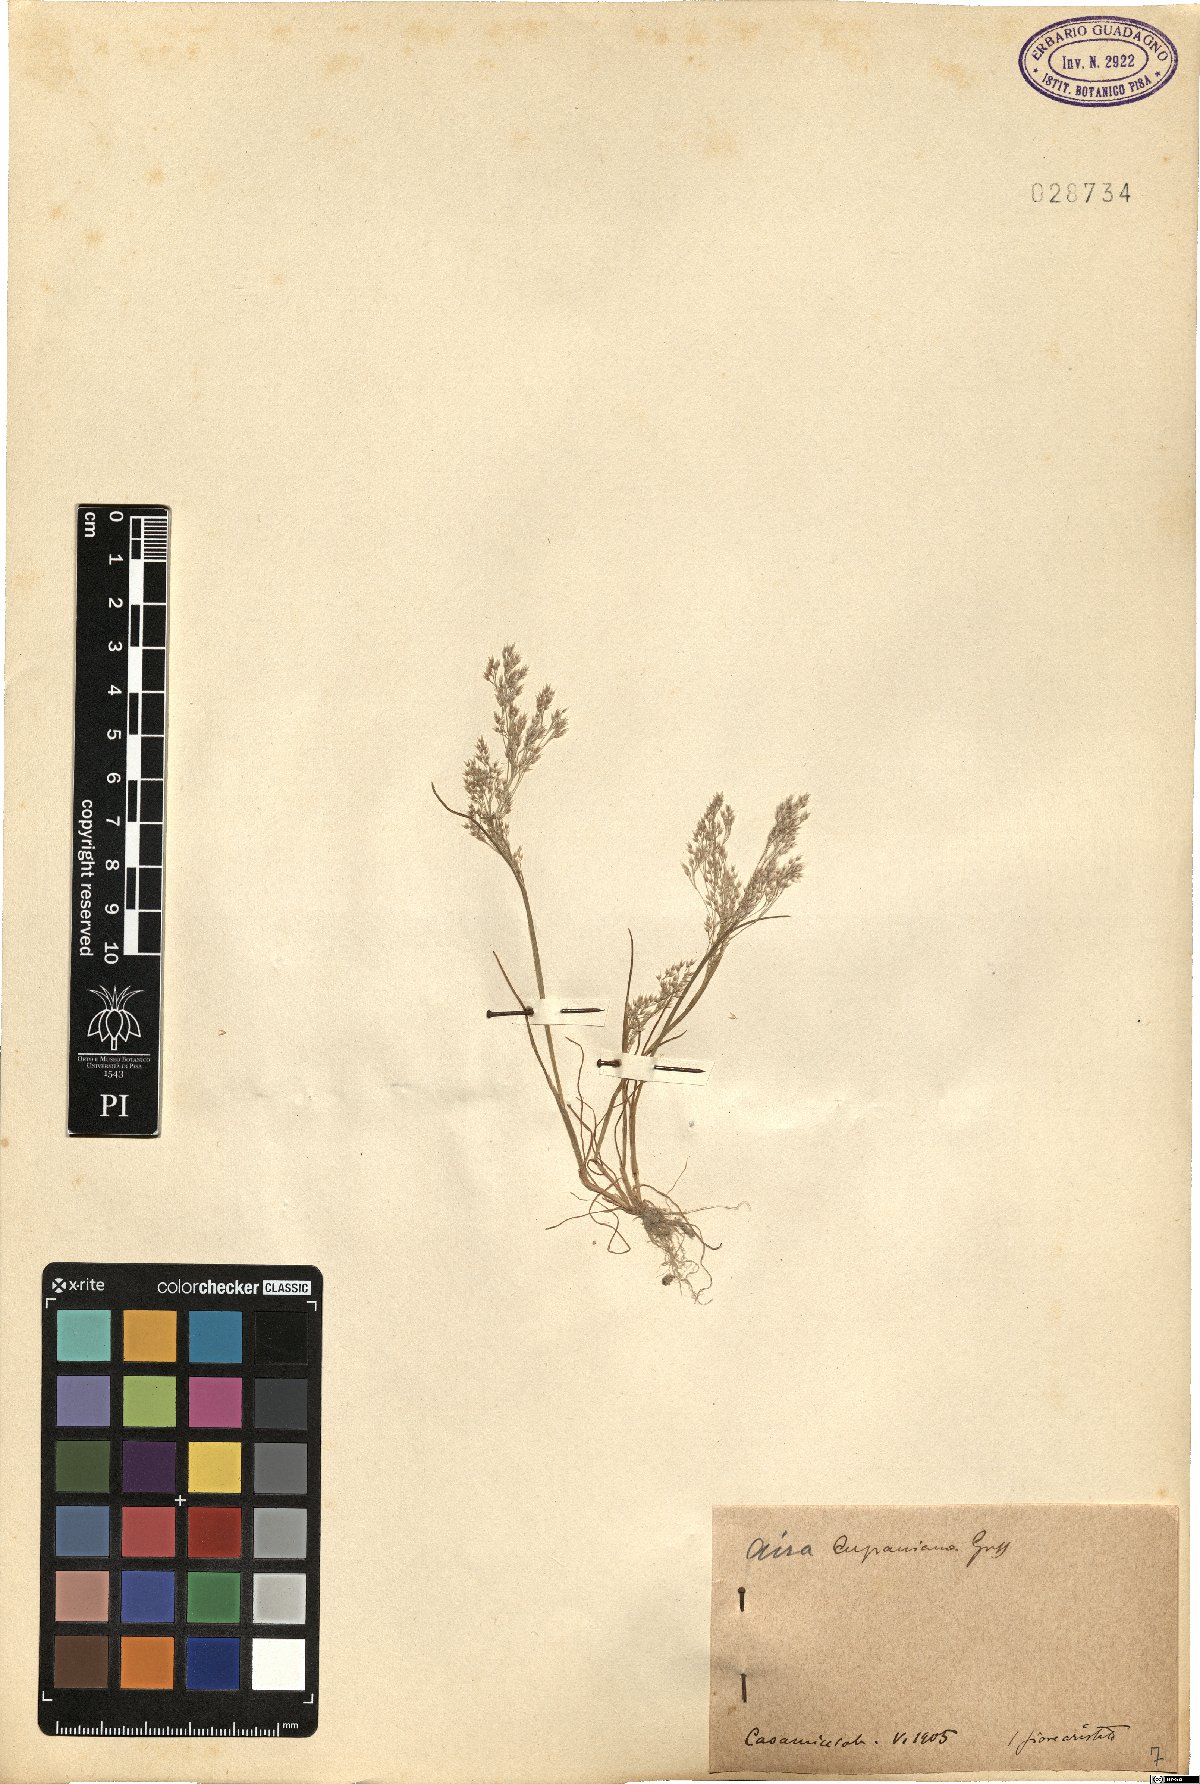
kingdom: Plantae
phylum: Tracheophyta
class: Liliopsida
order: Poales
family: Poaceae
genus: Aira
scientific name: Aira cupaniana
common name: Silver hairgrass
